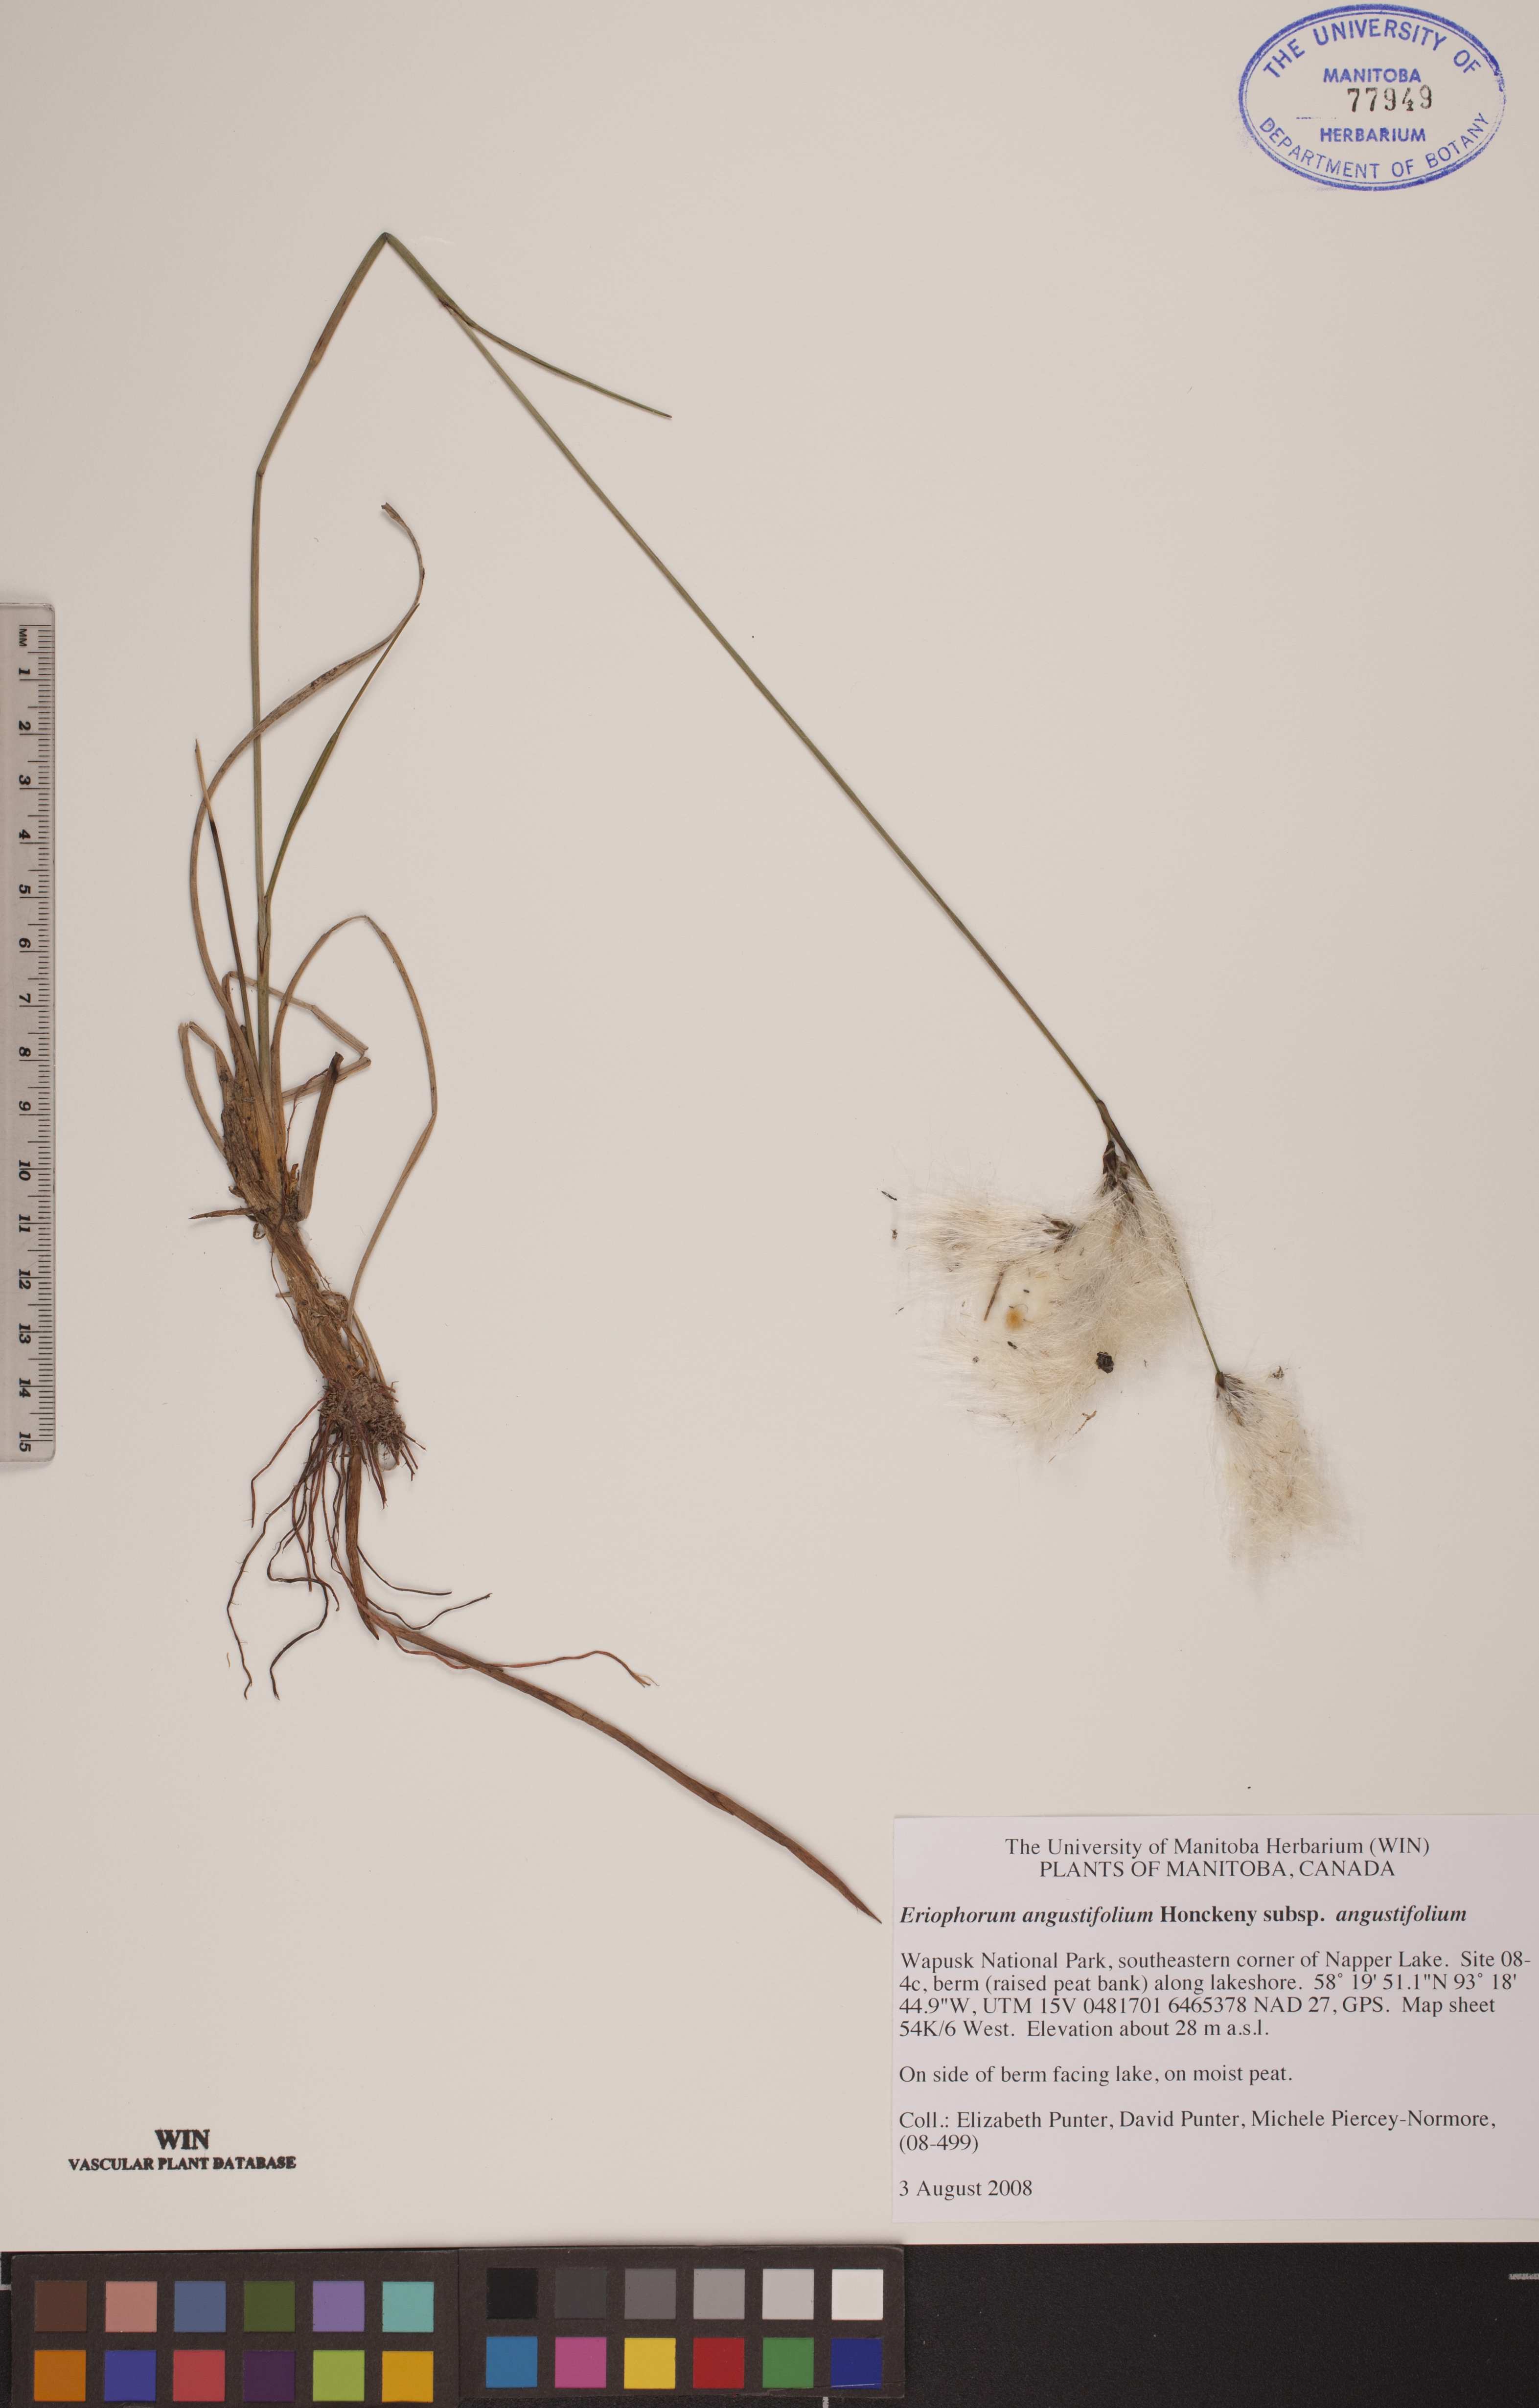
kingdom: Plantae
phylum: Tracheophyta
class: Liliopsida
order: Poales
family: Cyperaceae
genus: Eriophorum
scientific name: Eriophorum angustifolium
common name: Common cottongrass
